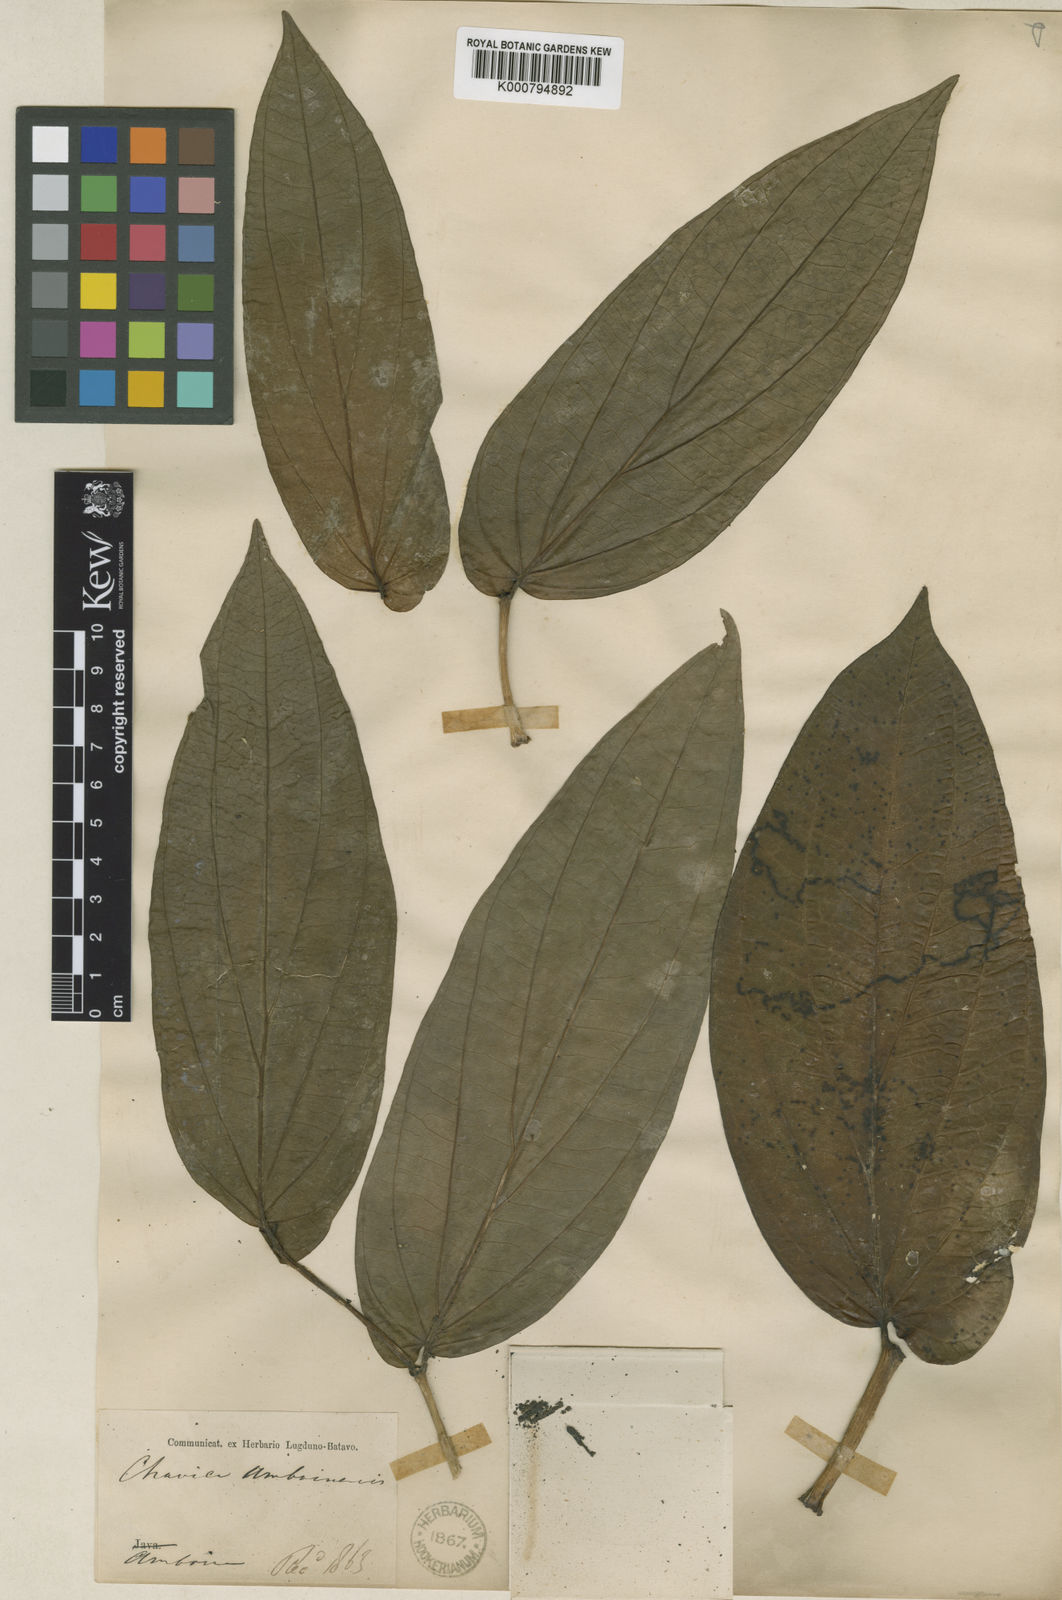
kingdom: Plantae
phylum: Tracheophyta
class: Magnoliopsida
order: Piperales
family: Piperaceae
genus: Piper
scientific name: Piper majusculum
